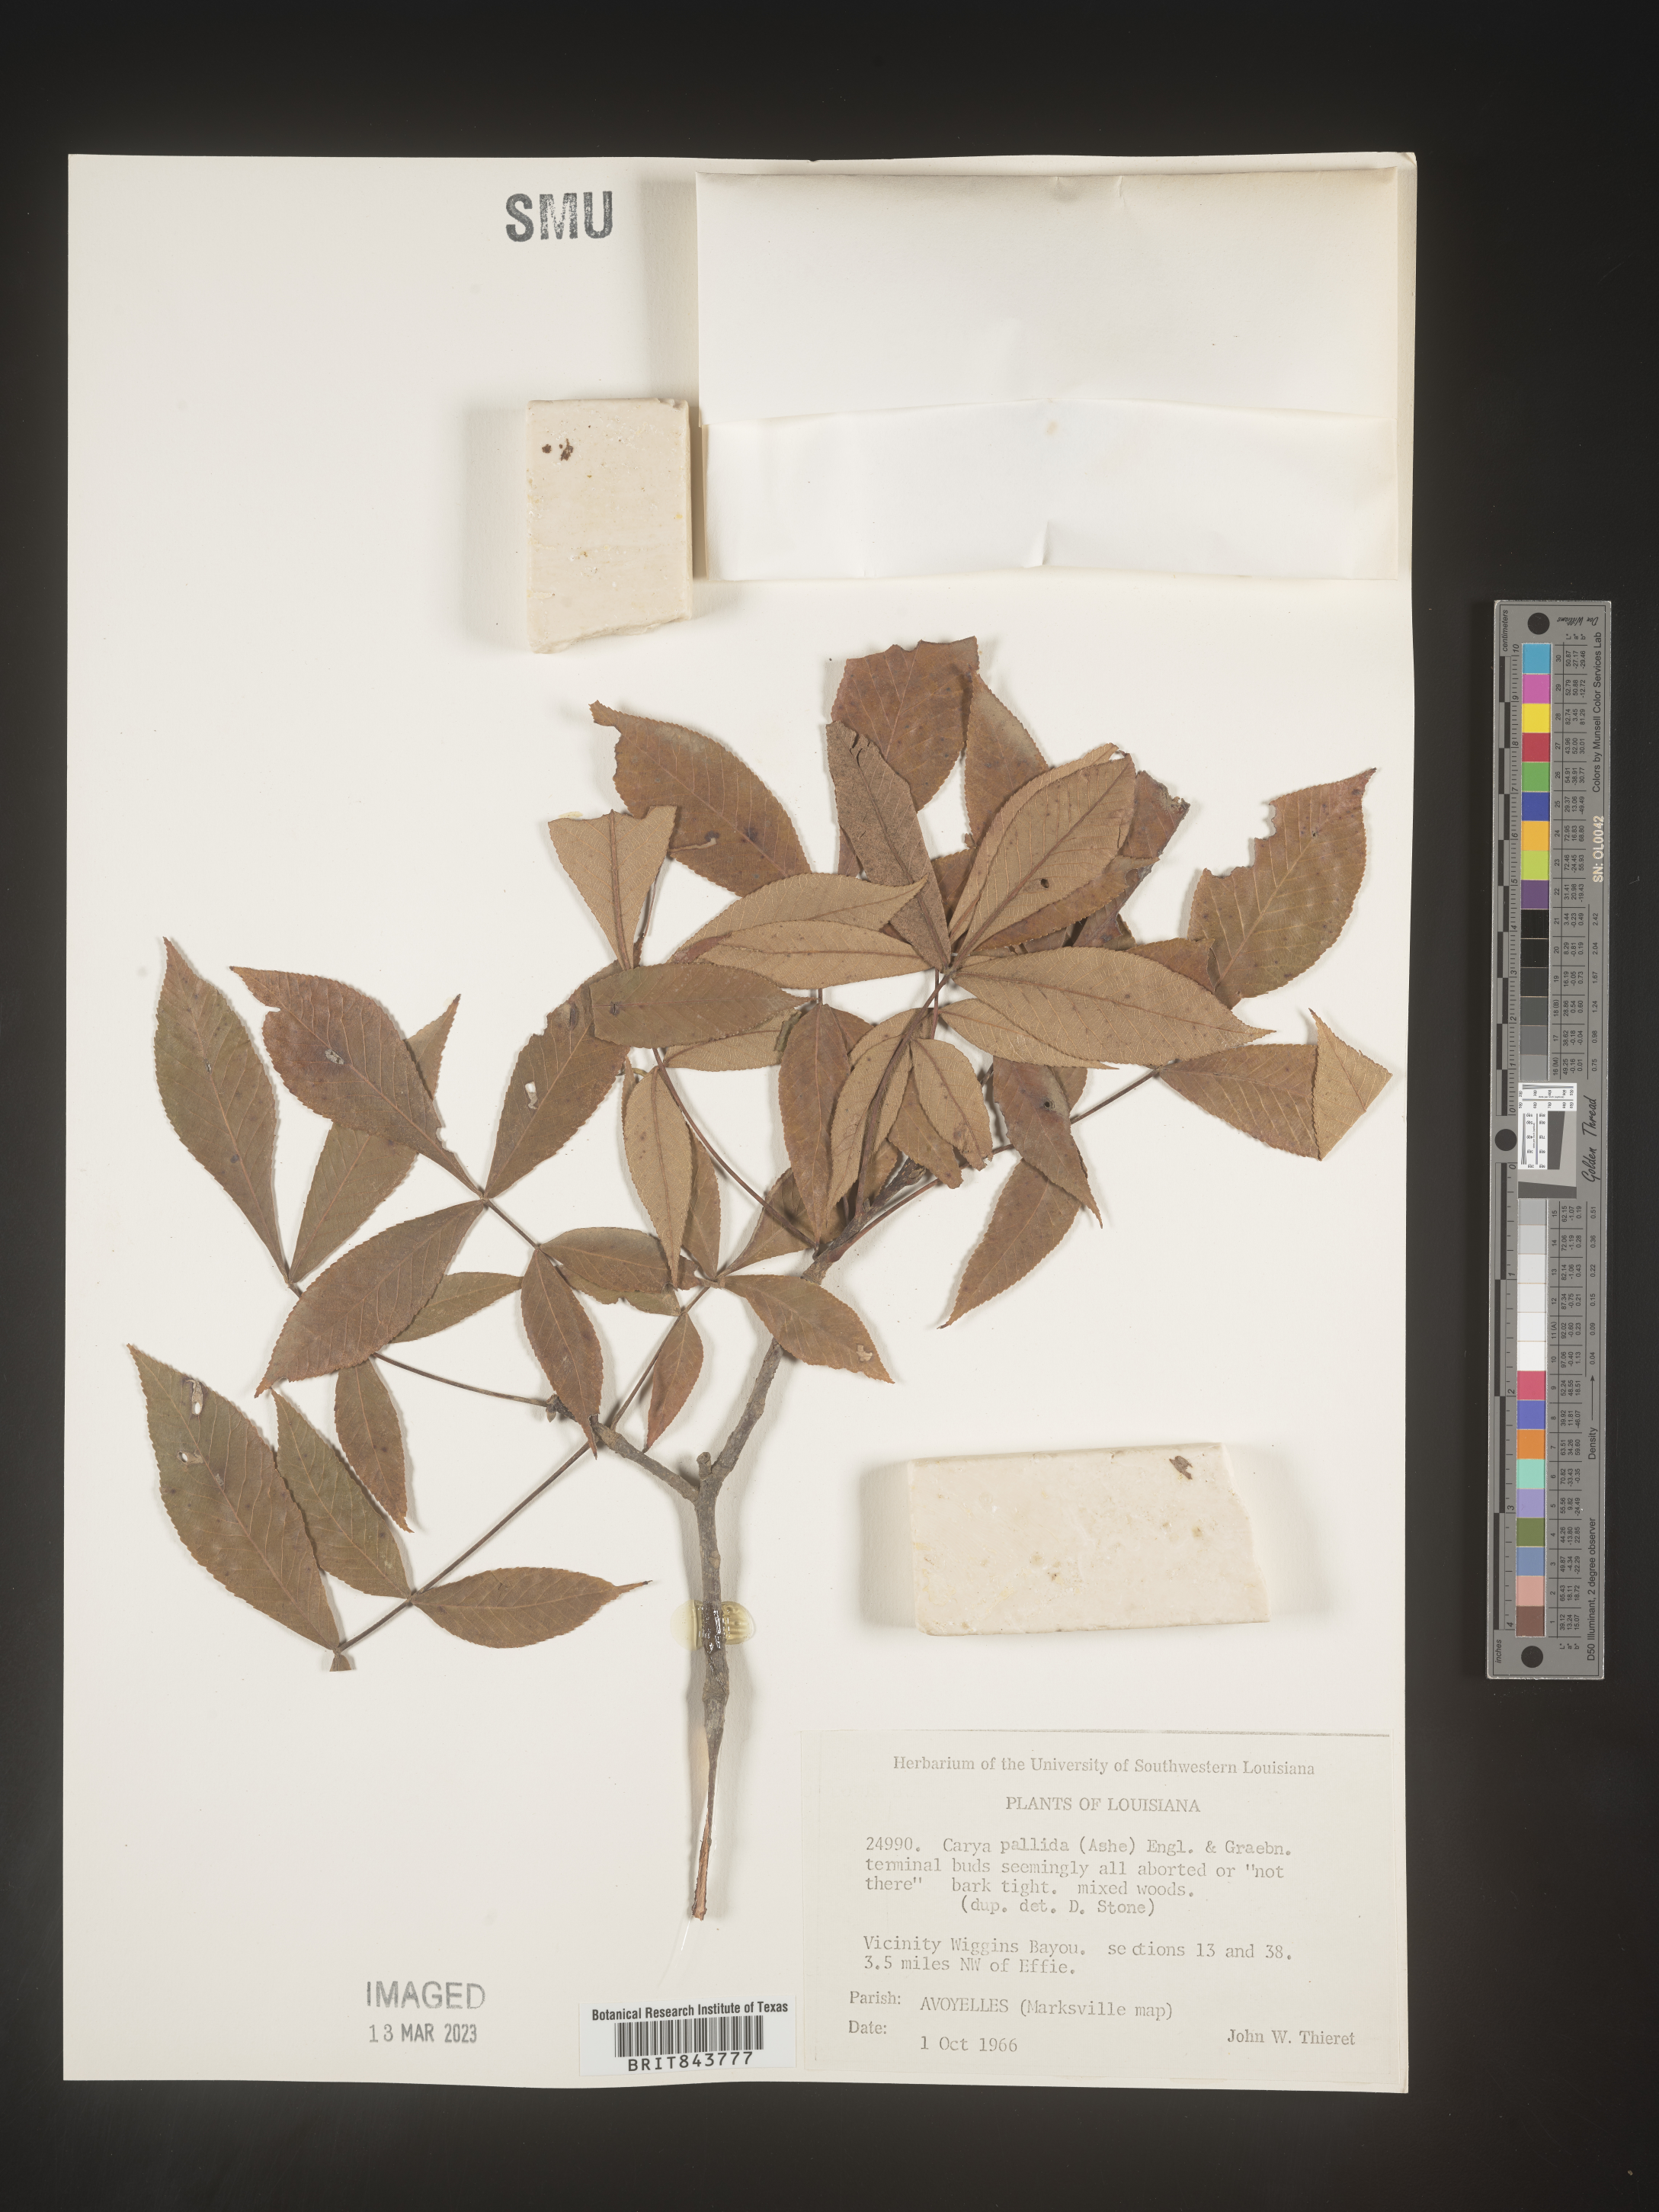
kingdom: Plantae
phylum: Tracheophyta
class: Magnoliopsida
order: Fagales
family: Juglandaceae
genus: Carya
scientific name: Carya pallida
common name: Sand hickory
